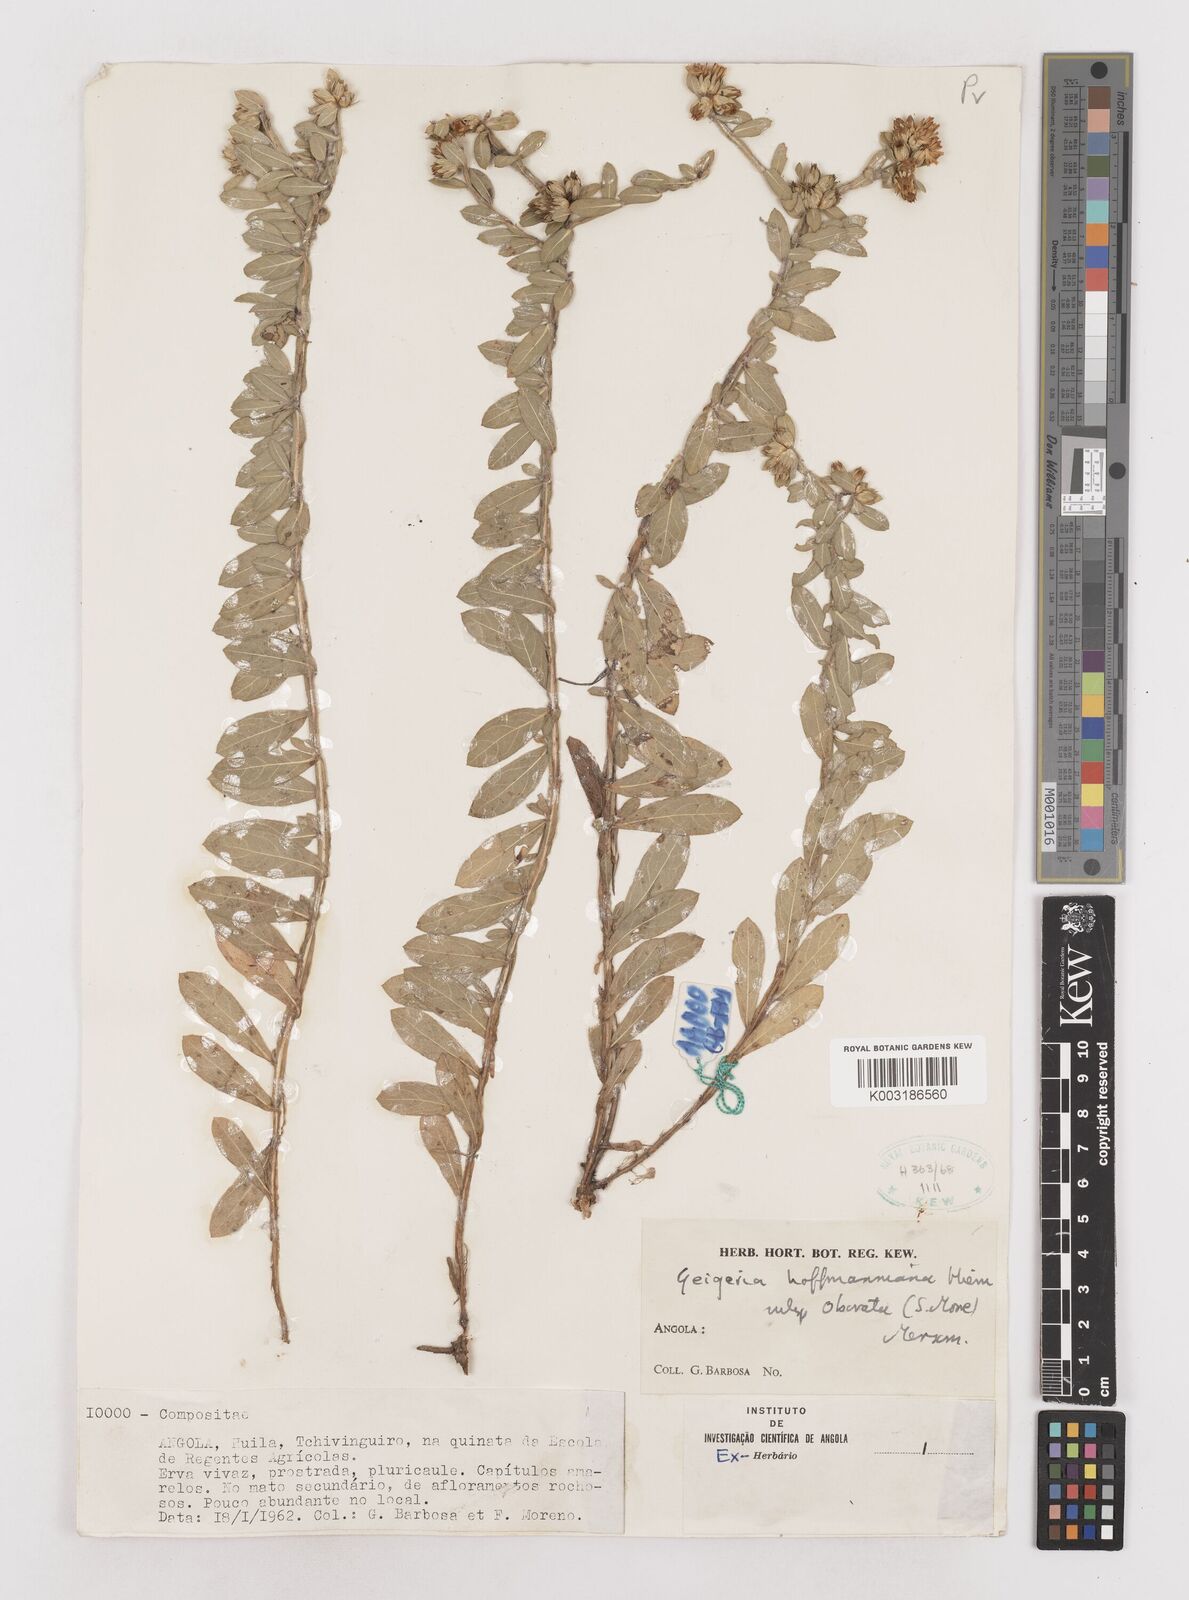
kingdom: Plantae
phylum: Tracheophyta
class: Magnoliopsida
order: Asterales
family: Asteraceae
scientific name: Asteraceae
